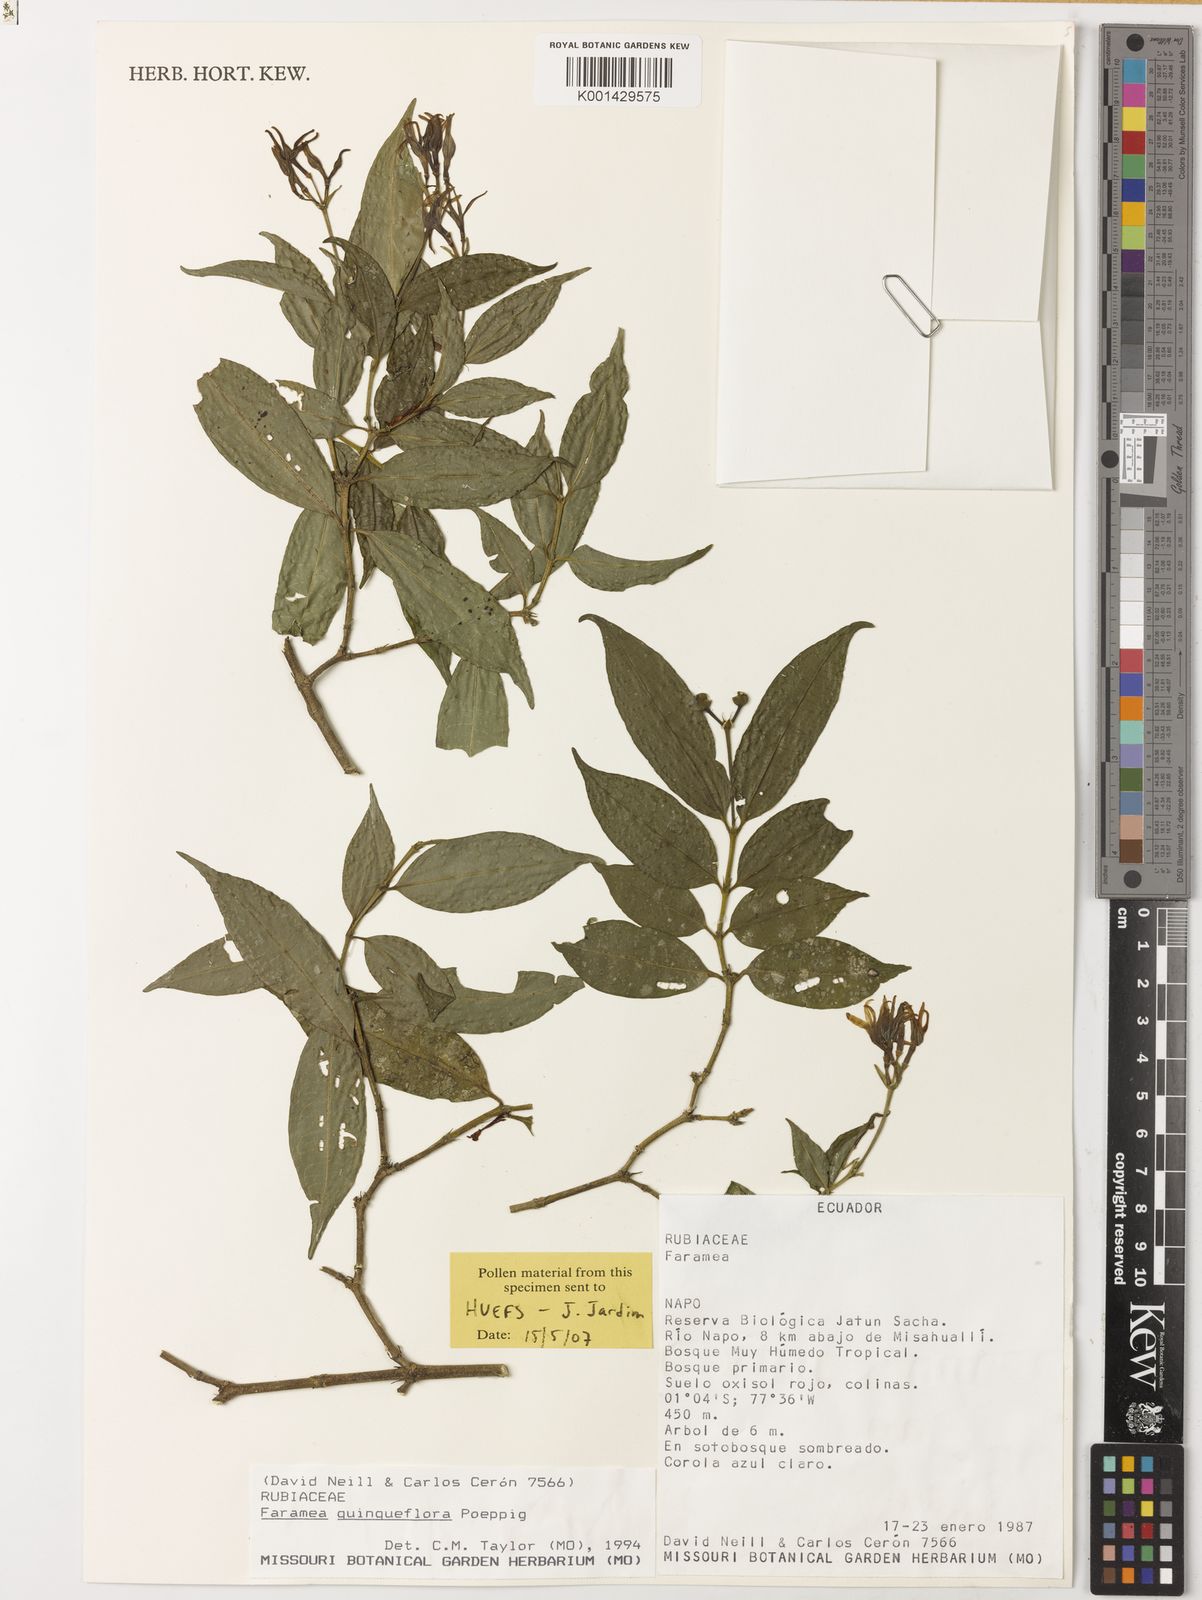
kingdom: Plantae
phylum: Tracheophyta
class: Magnoliopsida
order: Gentianales
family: Rubiaceae
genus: Faramea
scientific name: Faramea quinqueflora
